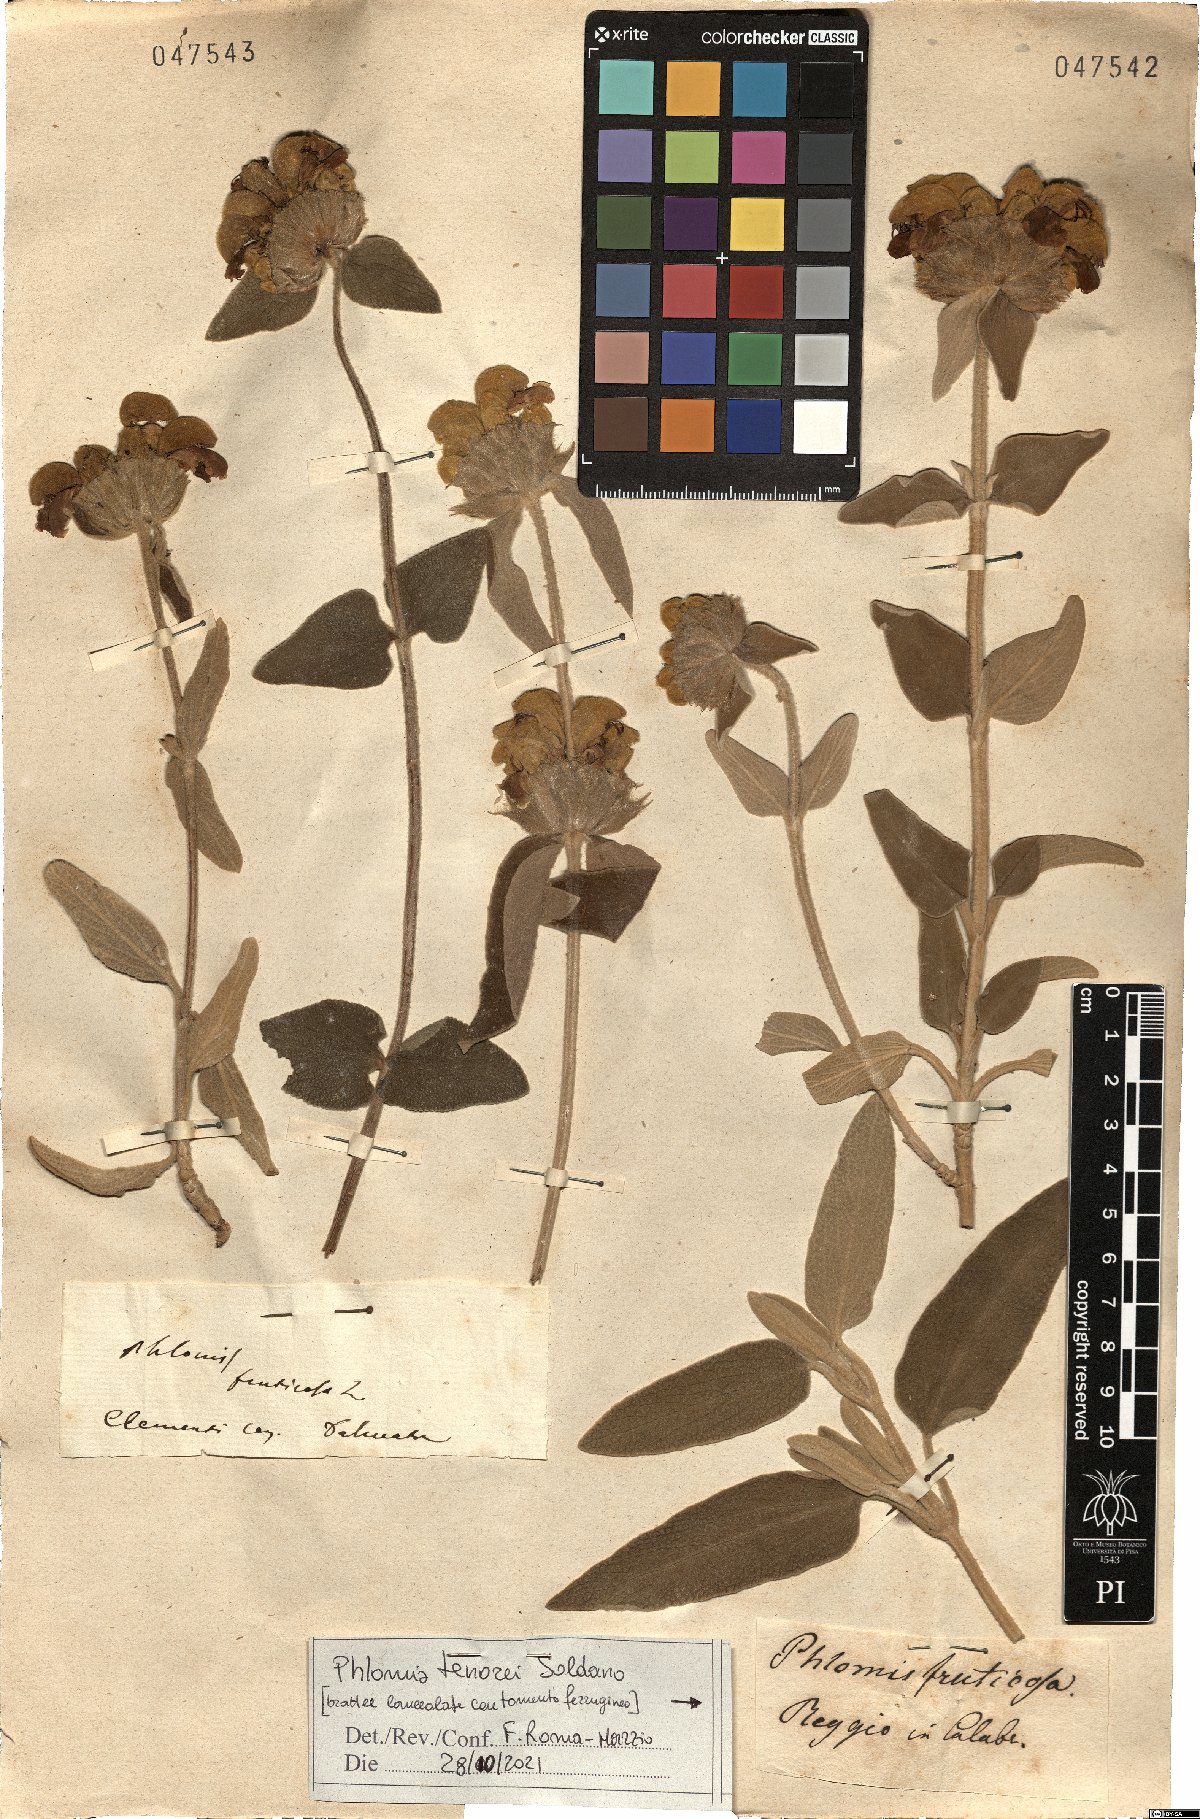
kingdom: Plantae
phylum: Tracheophyta
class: Magnoliopsida
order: Lamiales
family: Lamiaceae
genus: Phlomis
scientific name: Phlomis tenorei
